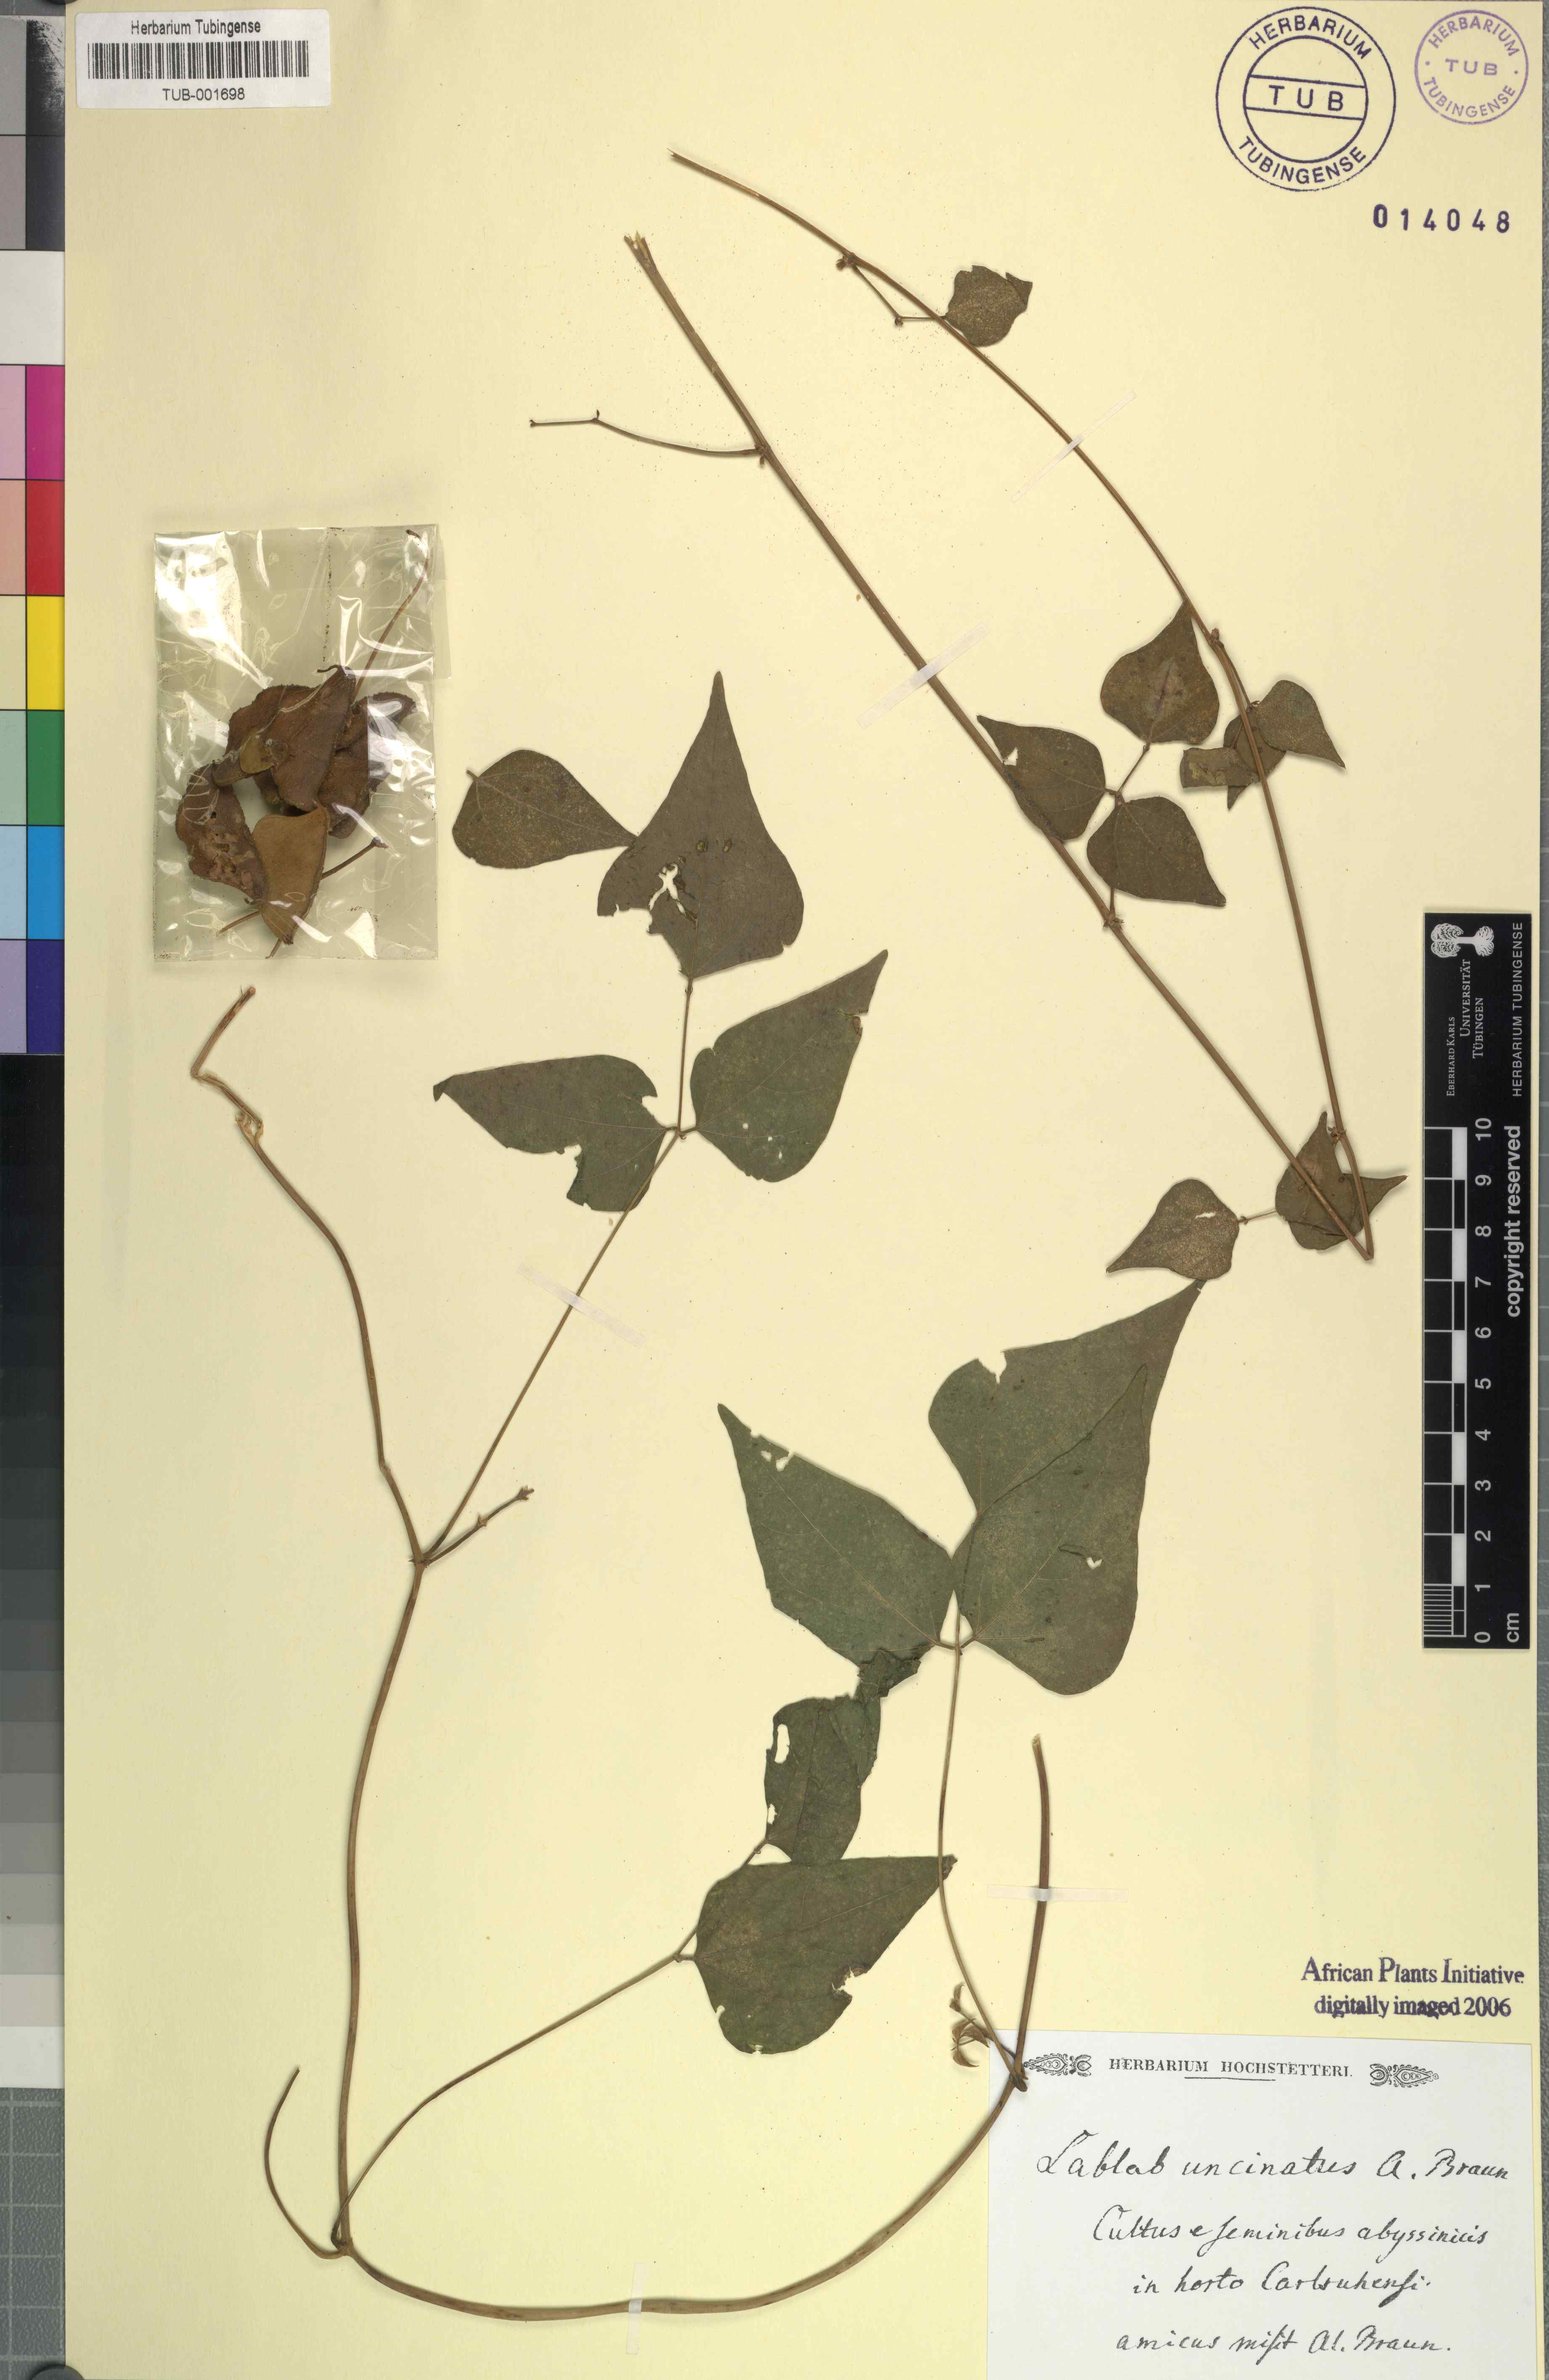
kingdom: Plantae
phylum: Tracheophyta
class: Magnoliopsida
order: Fabales
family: Fabaceae
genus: Lablab
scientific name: Lablab purpureus
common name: Lablab-bean
